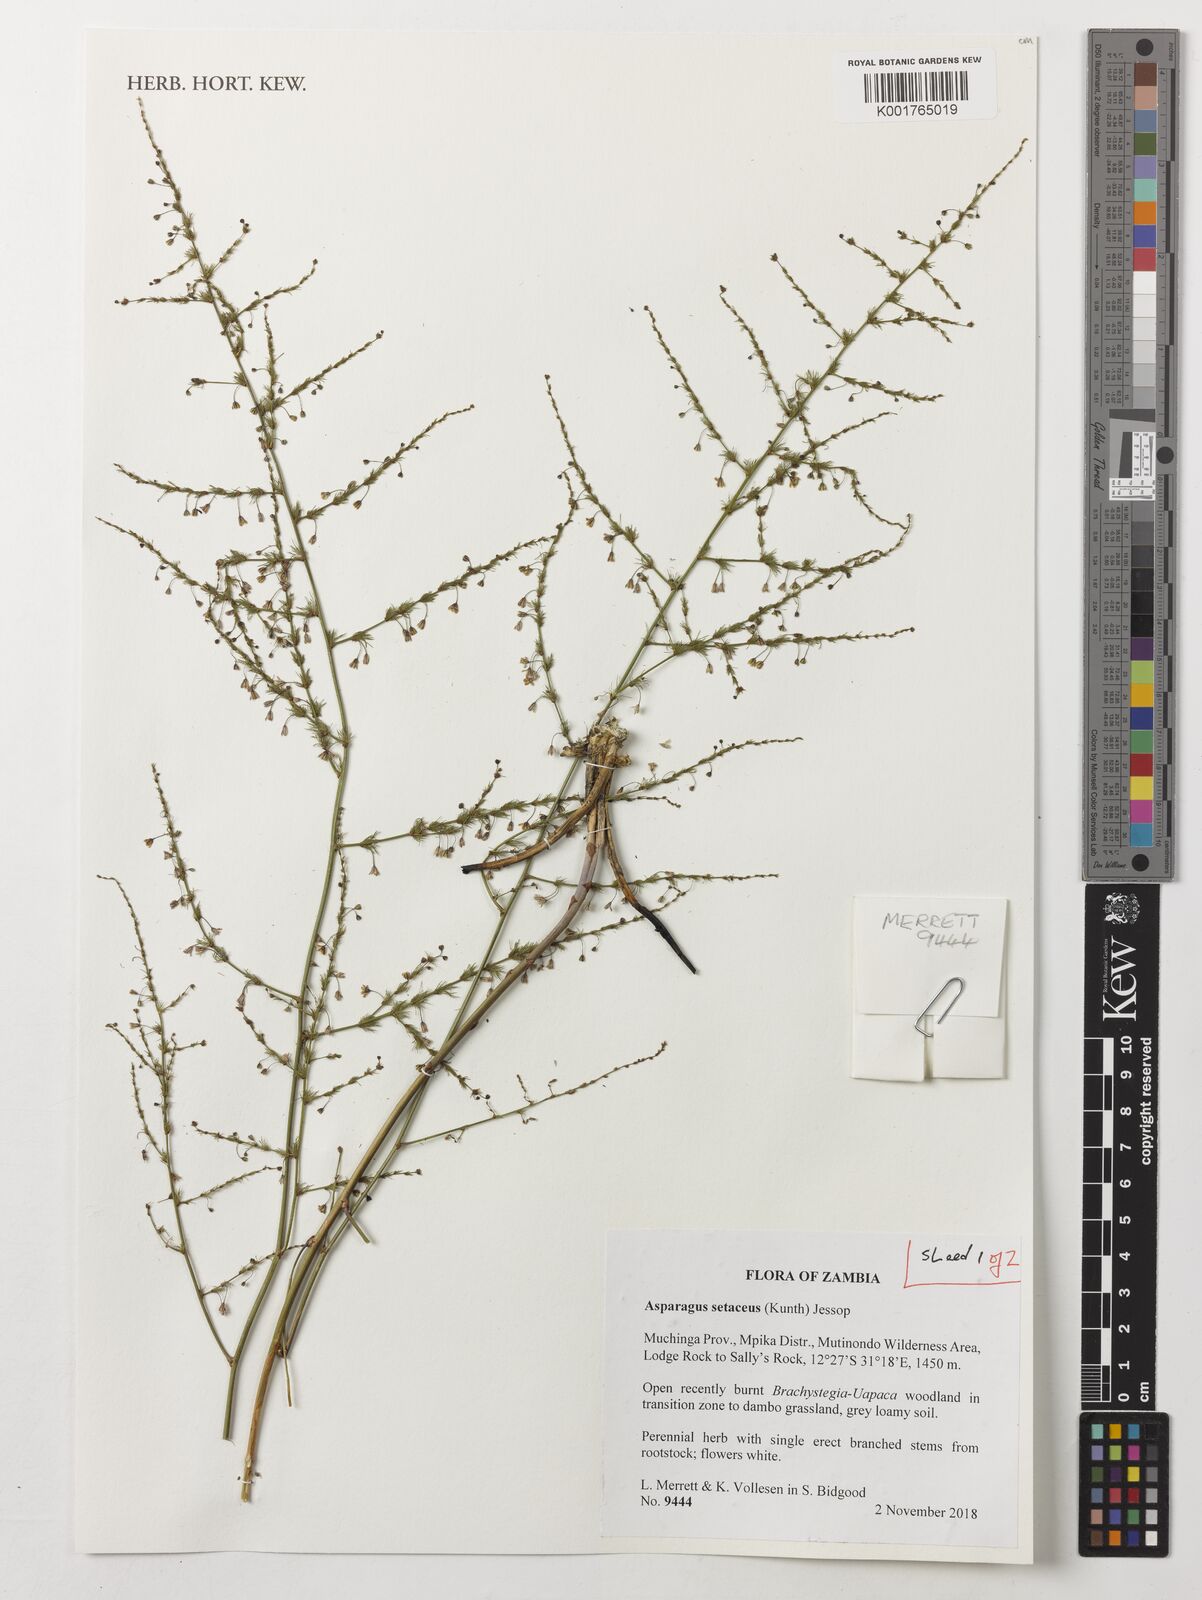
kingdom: Plantae
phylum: Tracheophyta
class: Liliopsida
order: Asparagales
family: Asparagaceae
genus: Asparagus
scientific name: Asparagus setaceus
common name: Common asparagus fern
